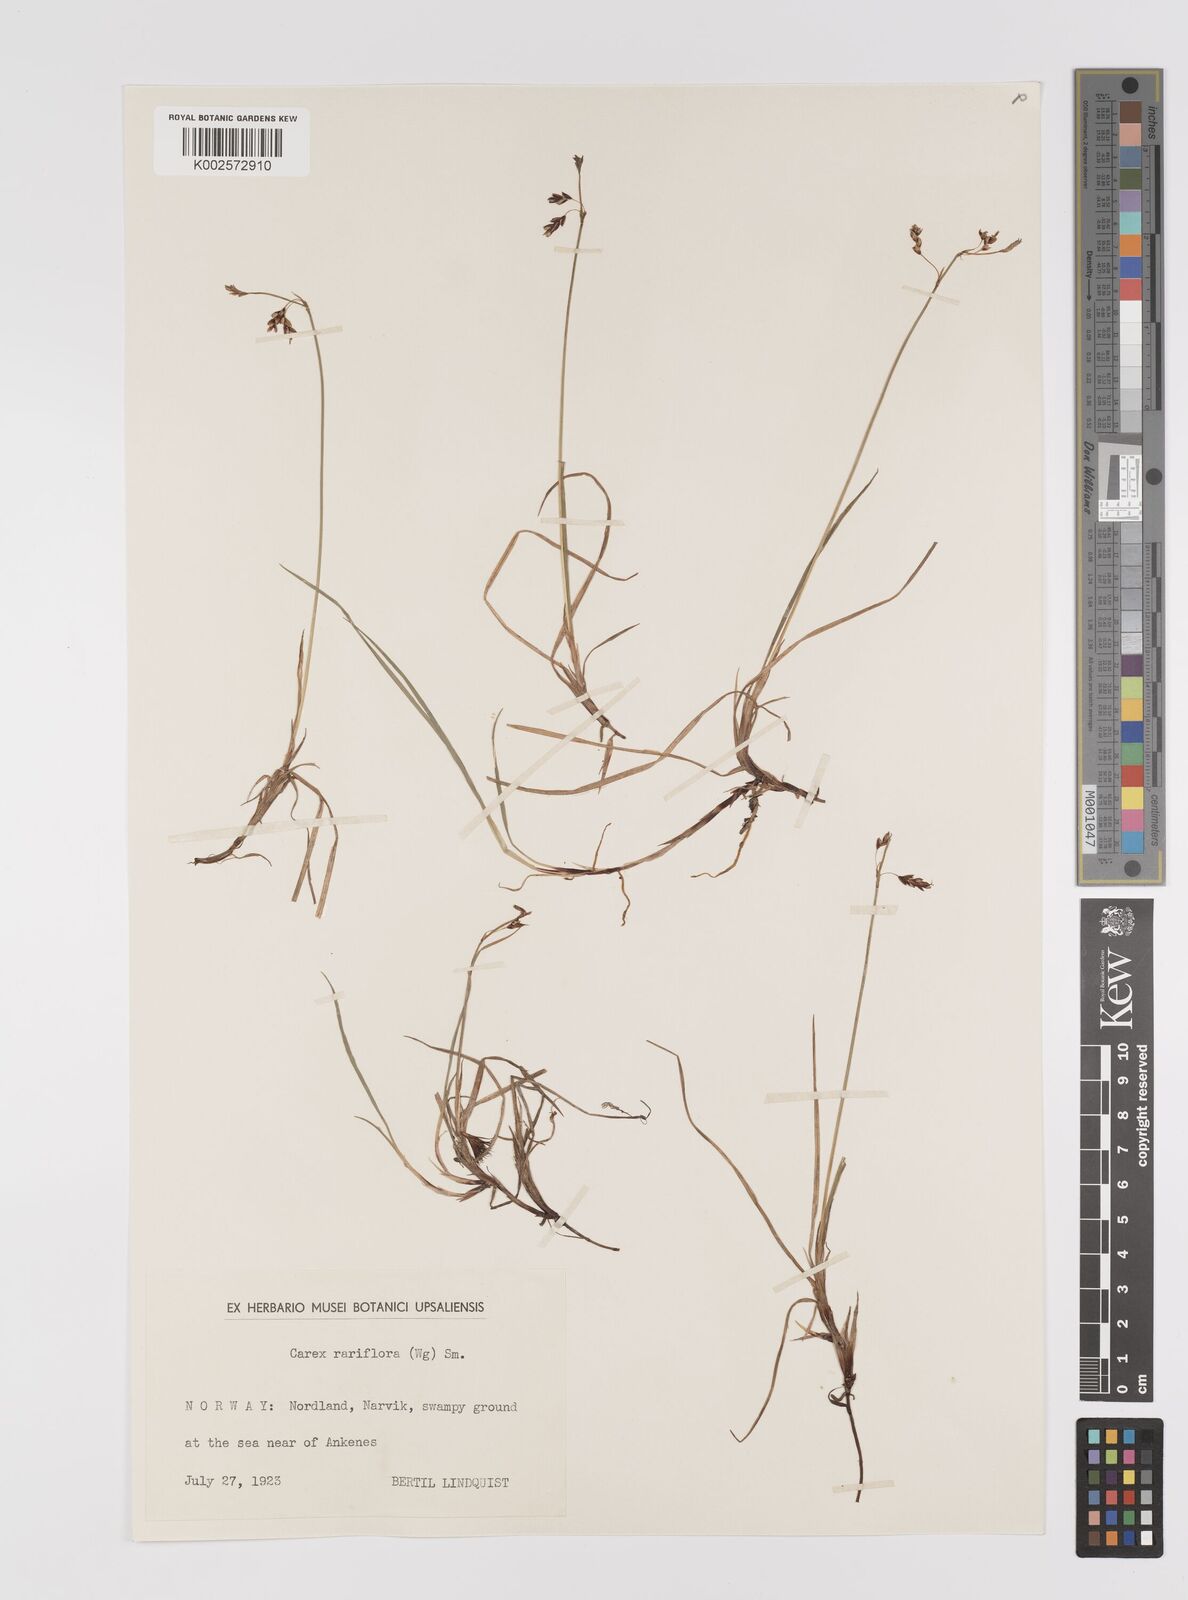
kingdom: Plantae
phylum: Tracheophyta
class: Liliopsida
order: Poales
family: Cyperaceae
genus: Carex
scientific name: Carex rariflora
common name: Loose-flowered alpine sedge
